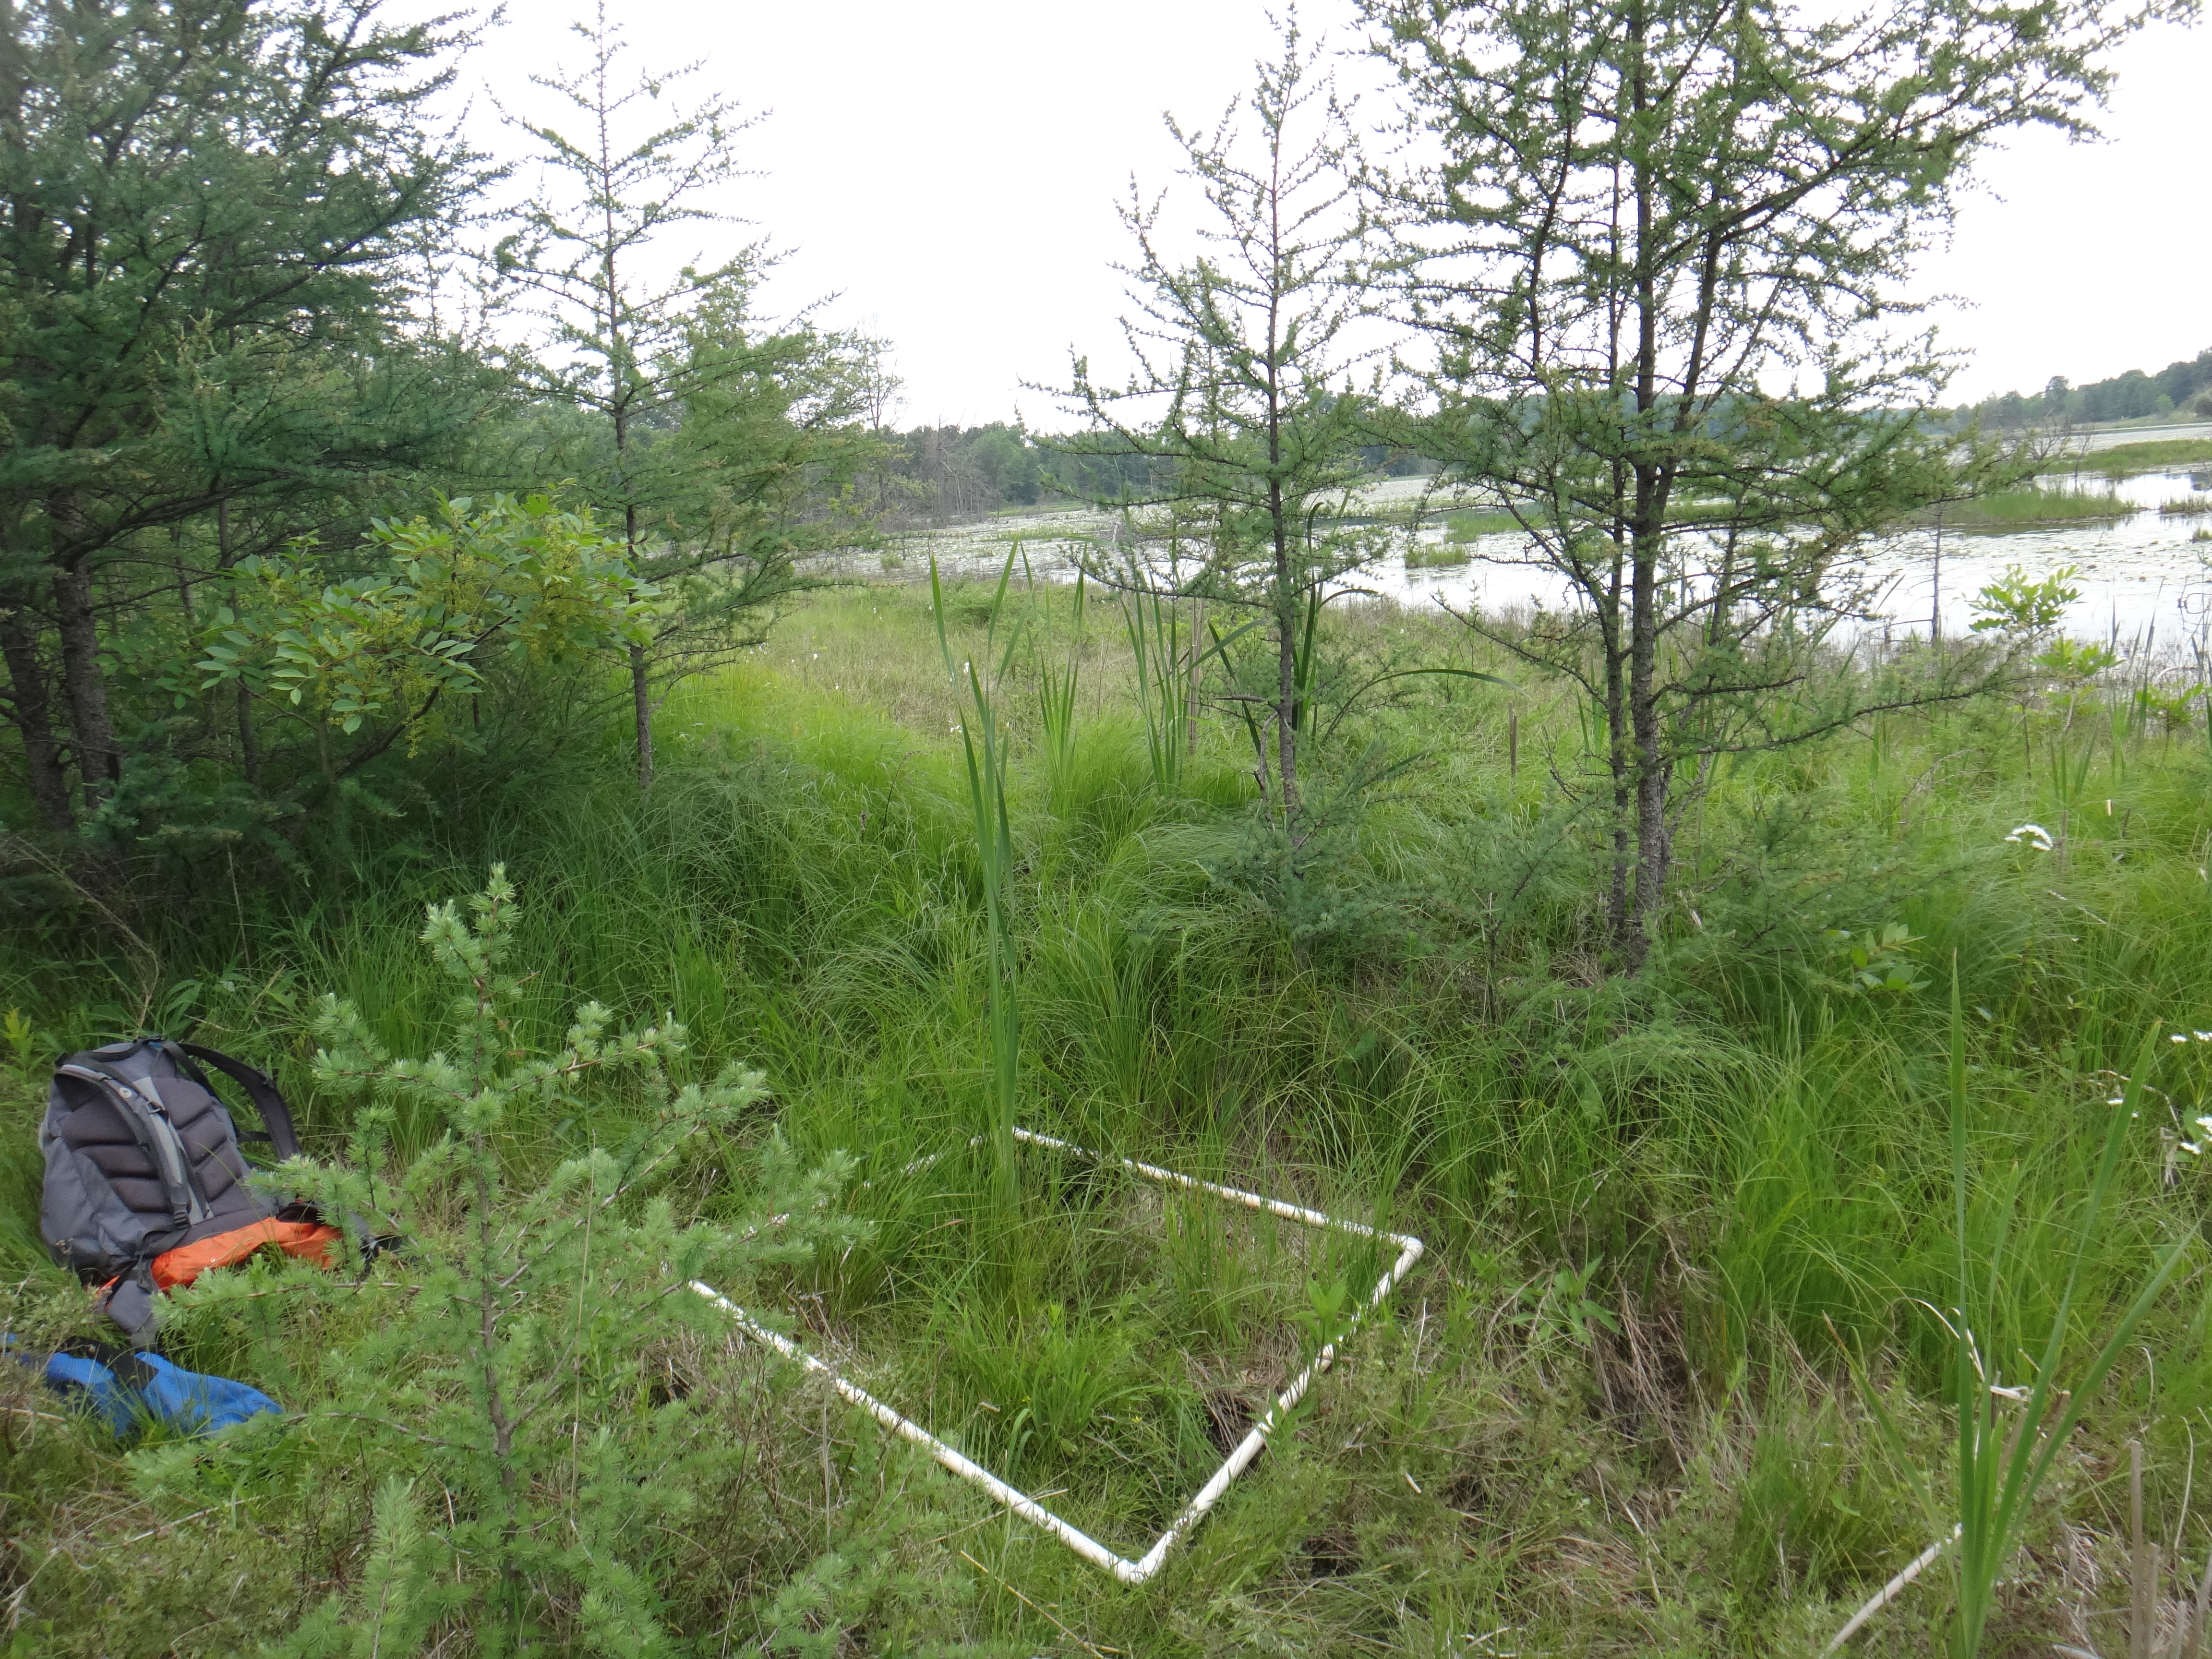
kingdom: Plantae
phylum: Tracheophyta
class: Magnoliopsida
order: Asterales
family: Asteraceae
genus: Symphyotrichum
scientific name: Symphyotrichum lateriflorum
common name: Calico aster
